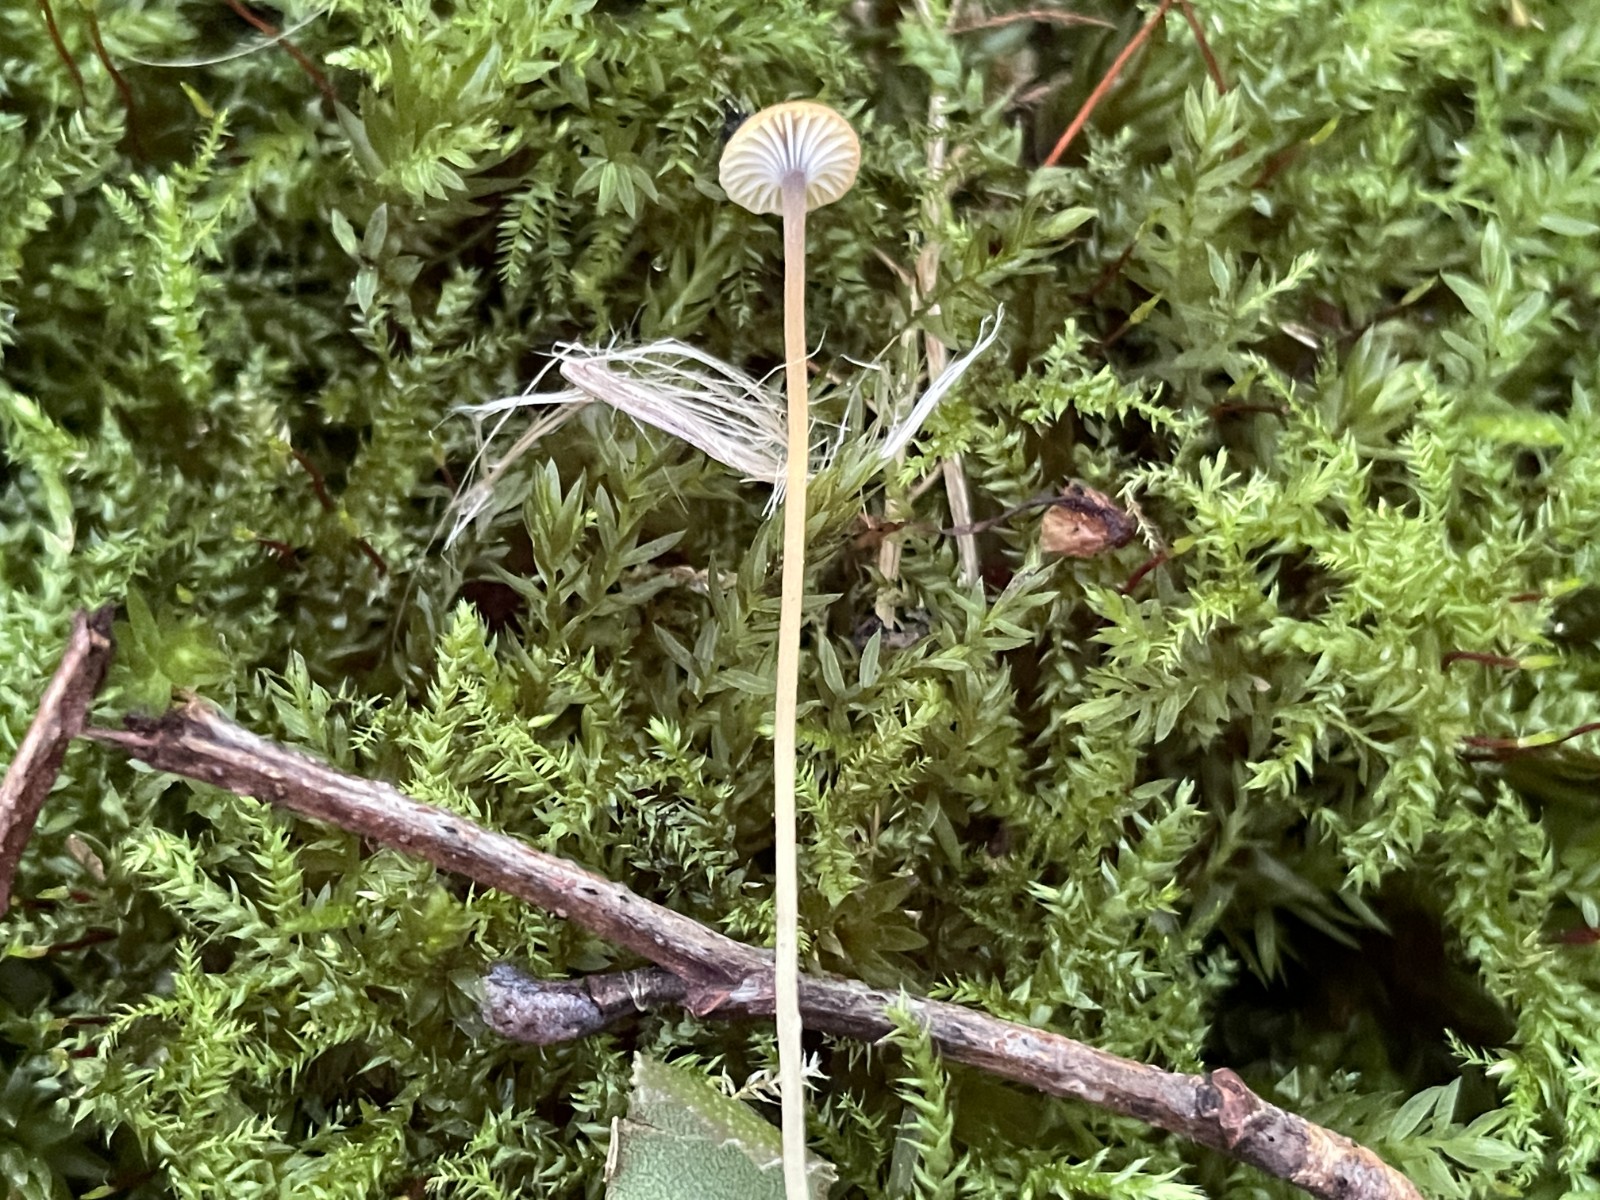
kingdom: Fungi
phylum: Basidiomycota
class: Agaricomycetes
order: Hymenochaetales
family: Rickenellaceae
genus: Rickenella
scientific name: Rickenella swartzii
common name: finstokket mosnavlehat
